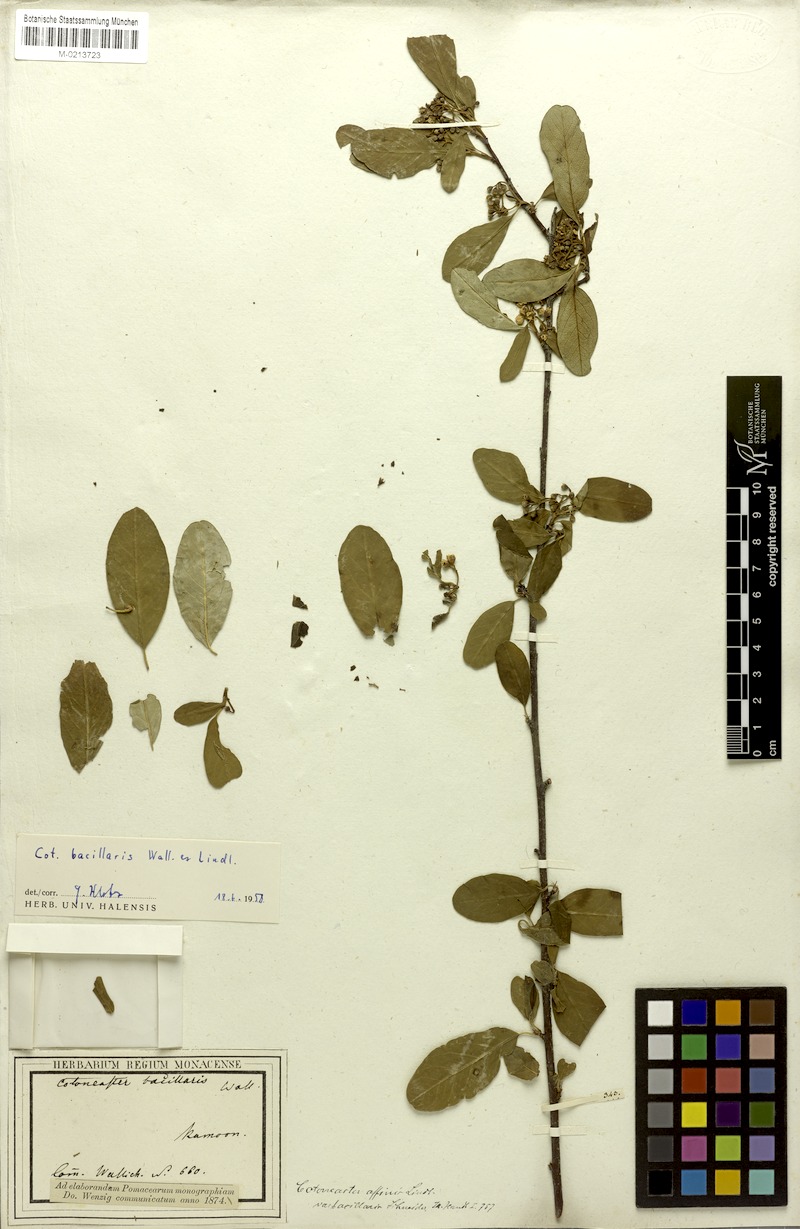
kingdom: Plantae
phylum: Tracheophyta
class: Magnoliopsida
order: Rosales
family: Rosaceae
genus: Cotoneaster
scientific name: Cotoneaster affinis
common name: Purpleberry cotoneaster
